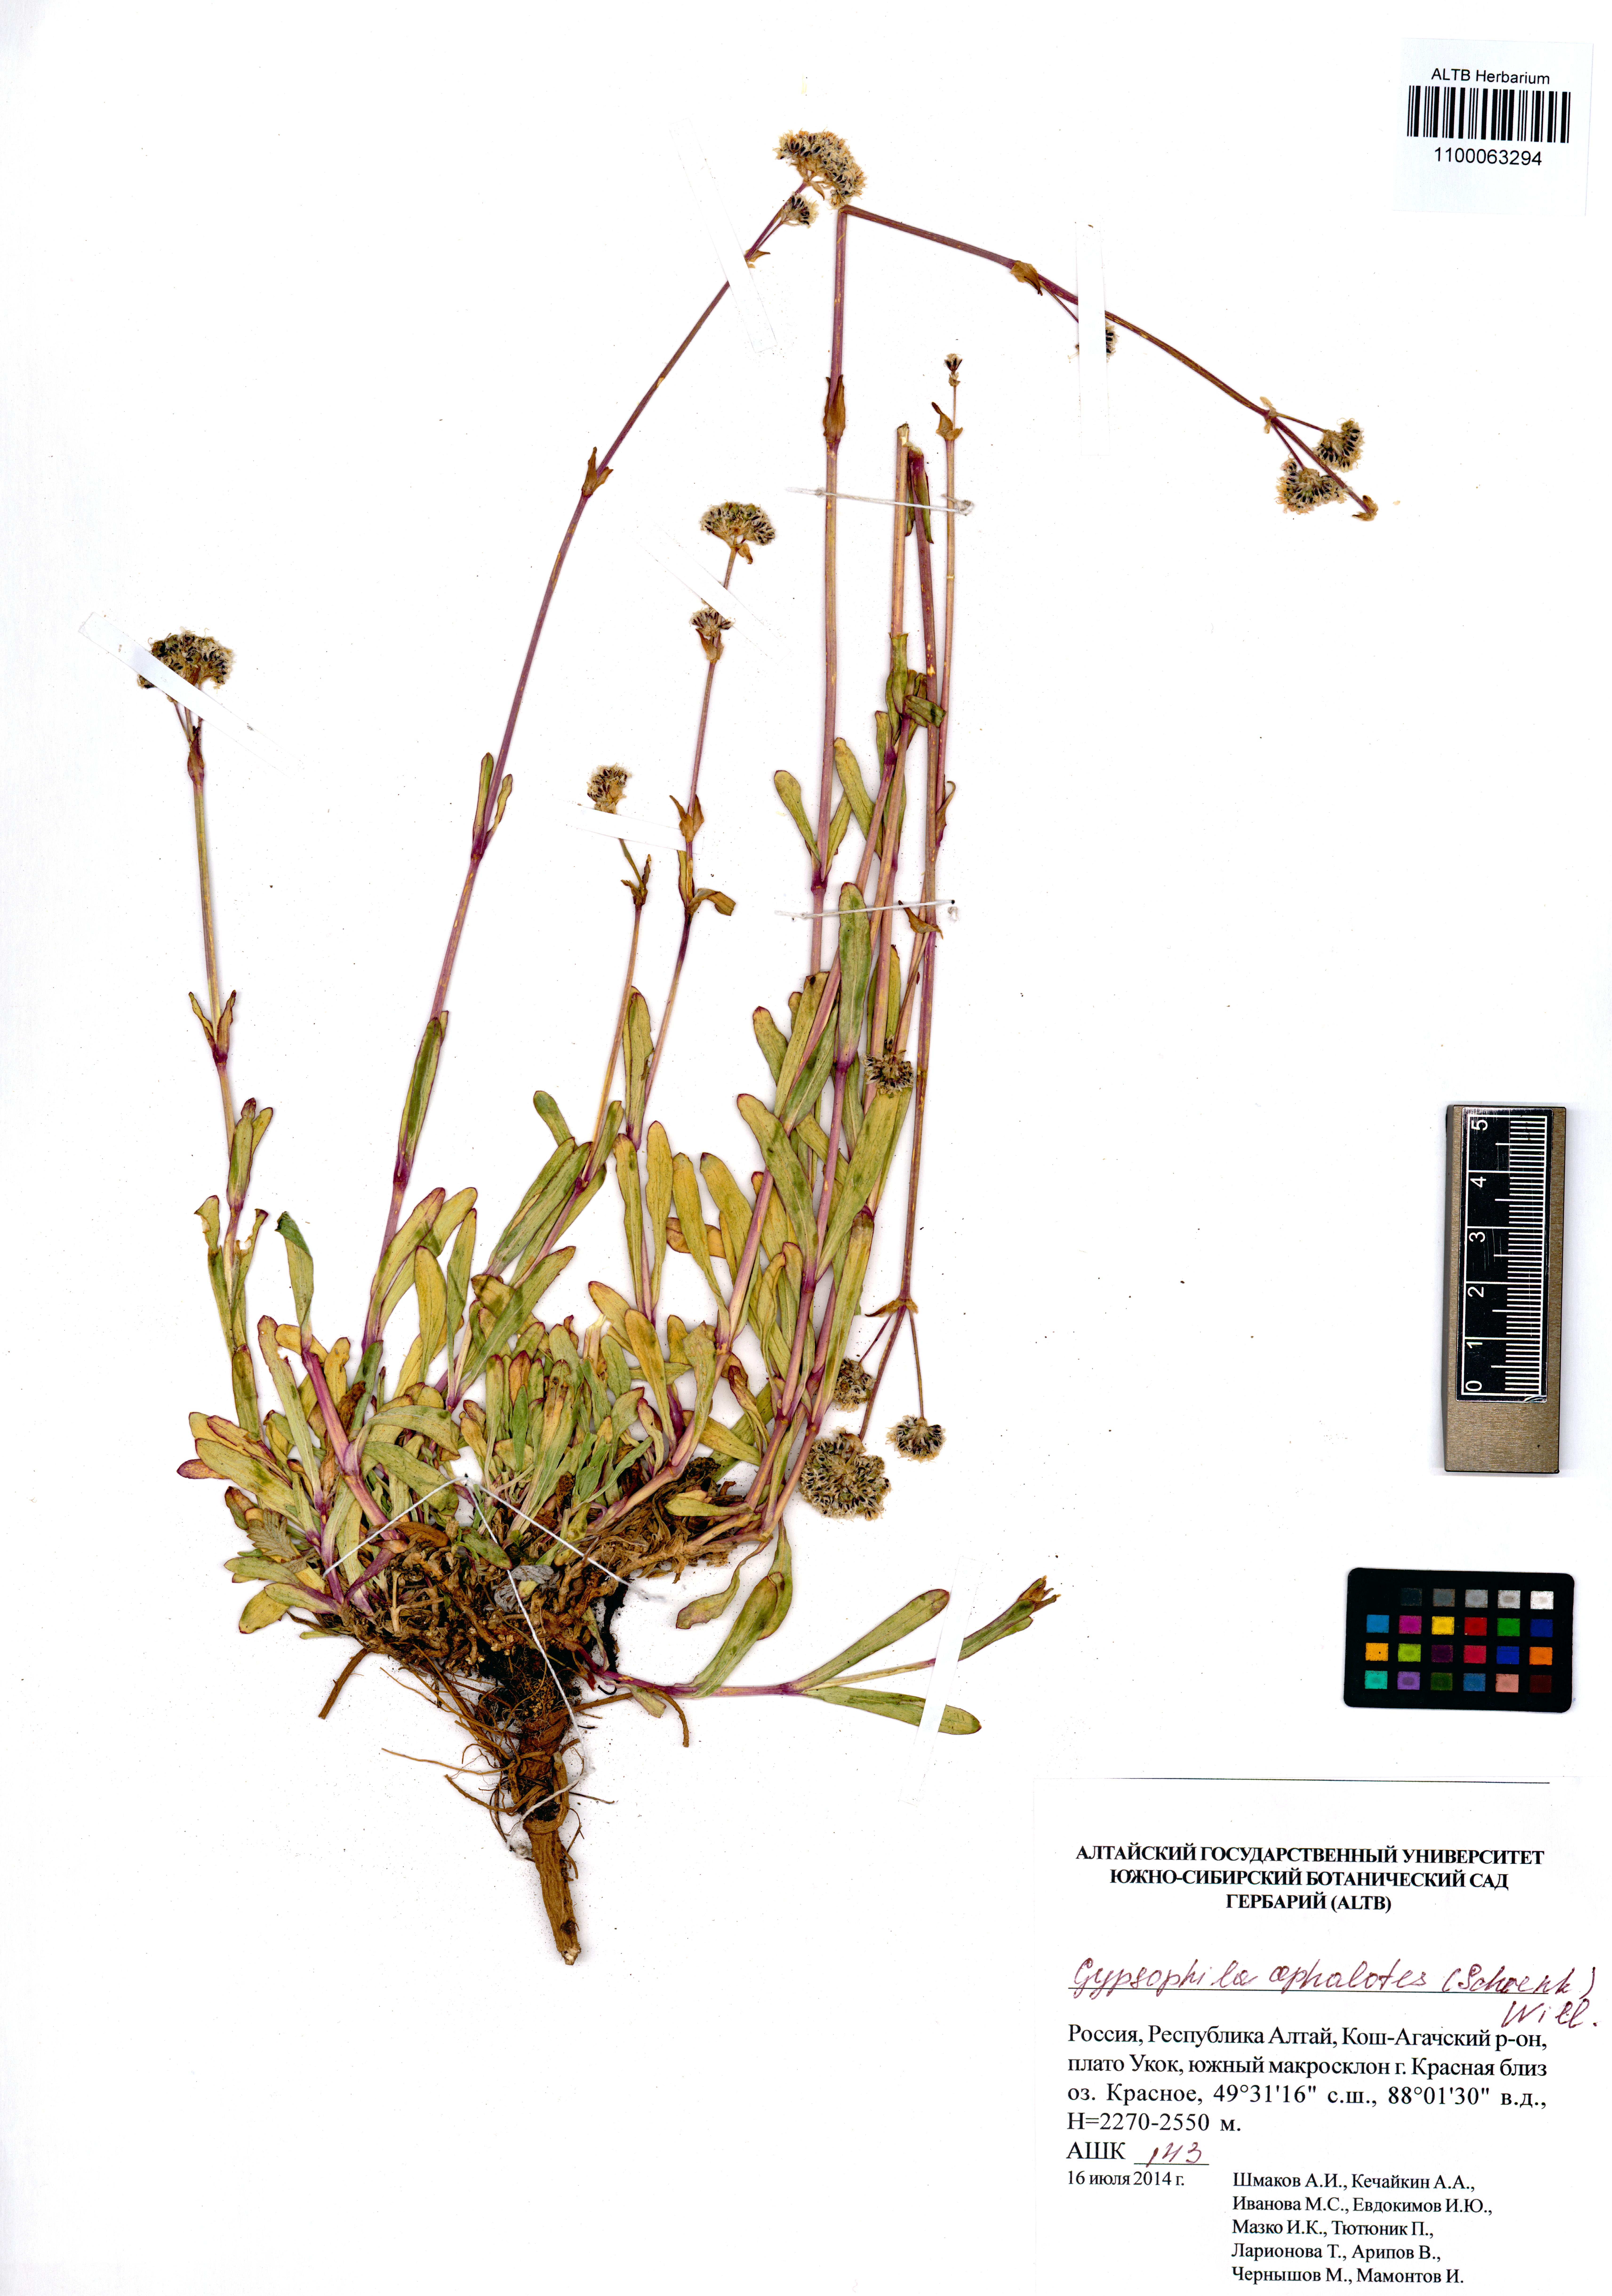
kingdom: Plantae
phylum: Tracheophyta
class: Magnoliopsida
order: Caryophyllales
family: Caryophyllaceae
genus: Gypsophila
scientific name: Gypsophila cephalotes
